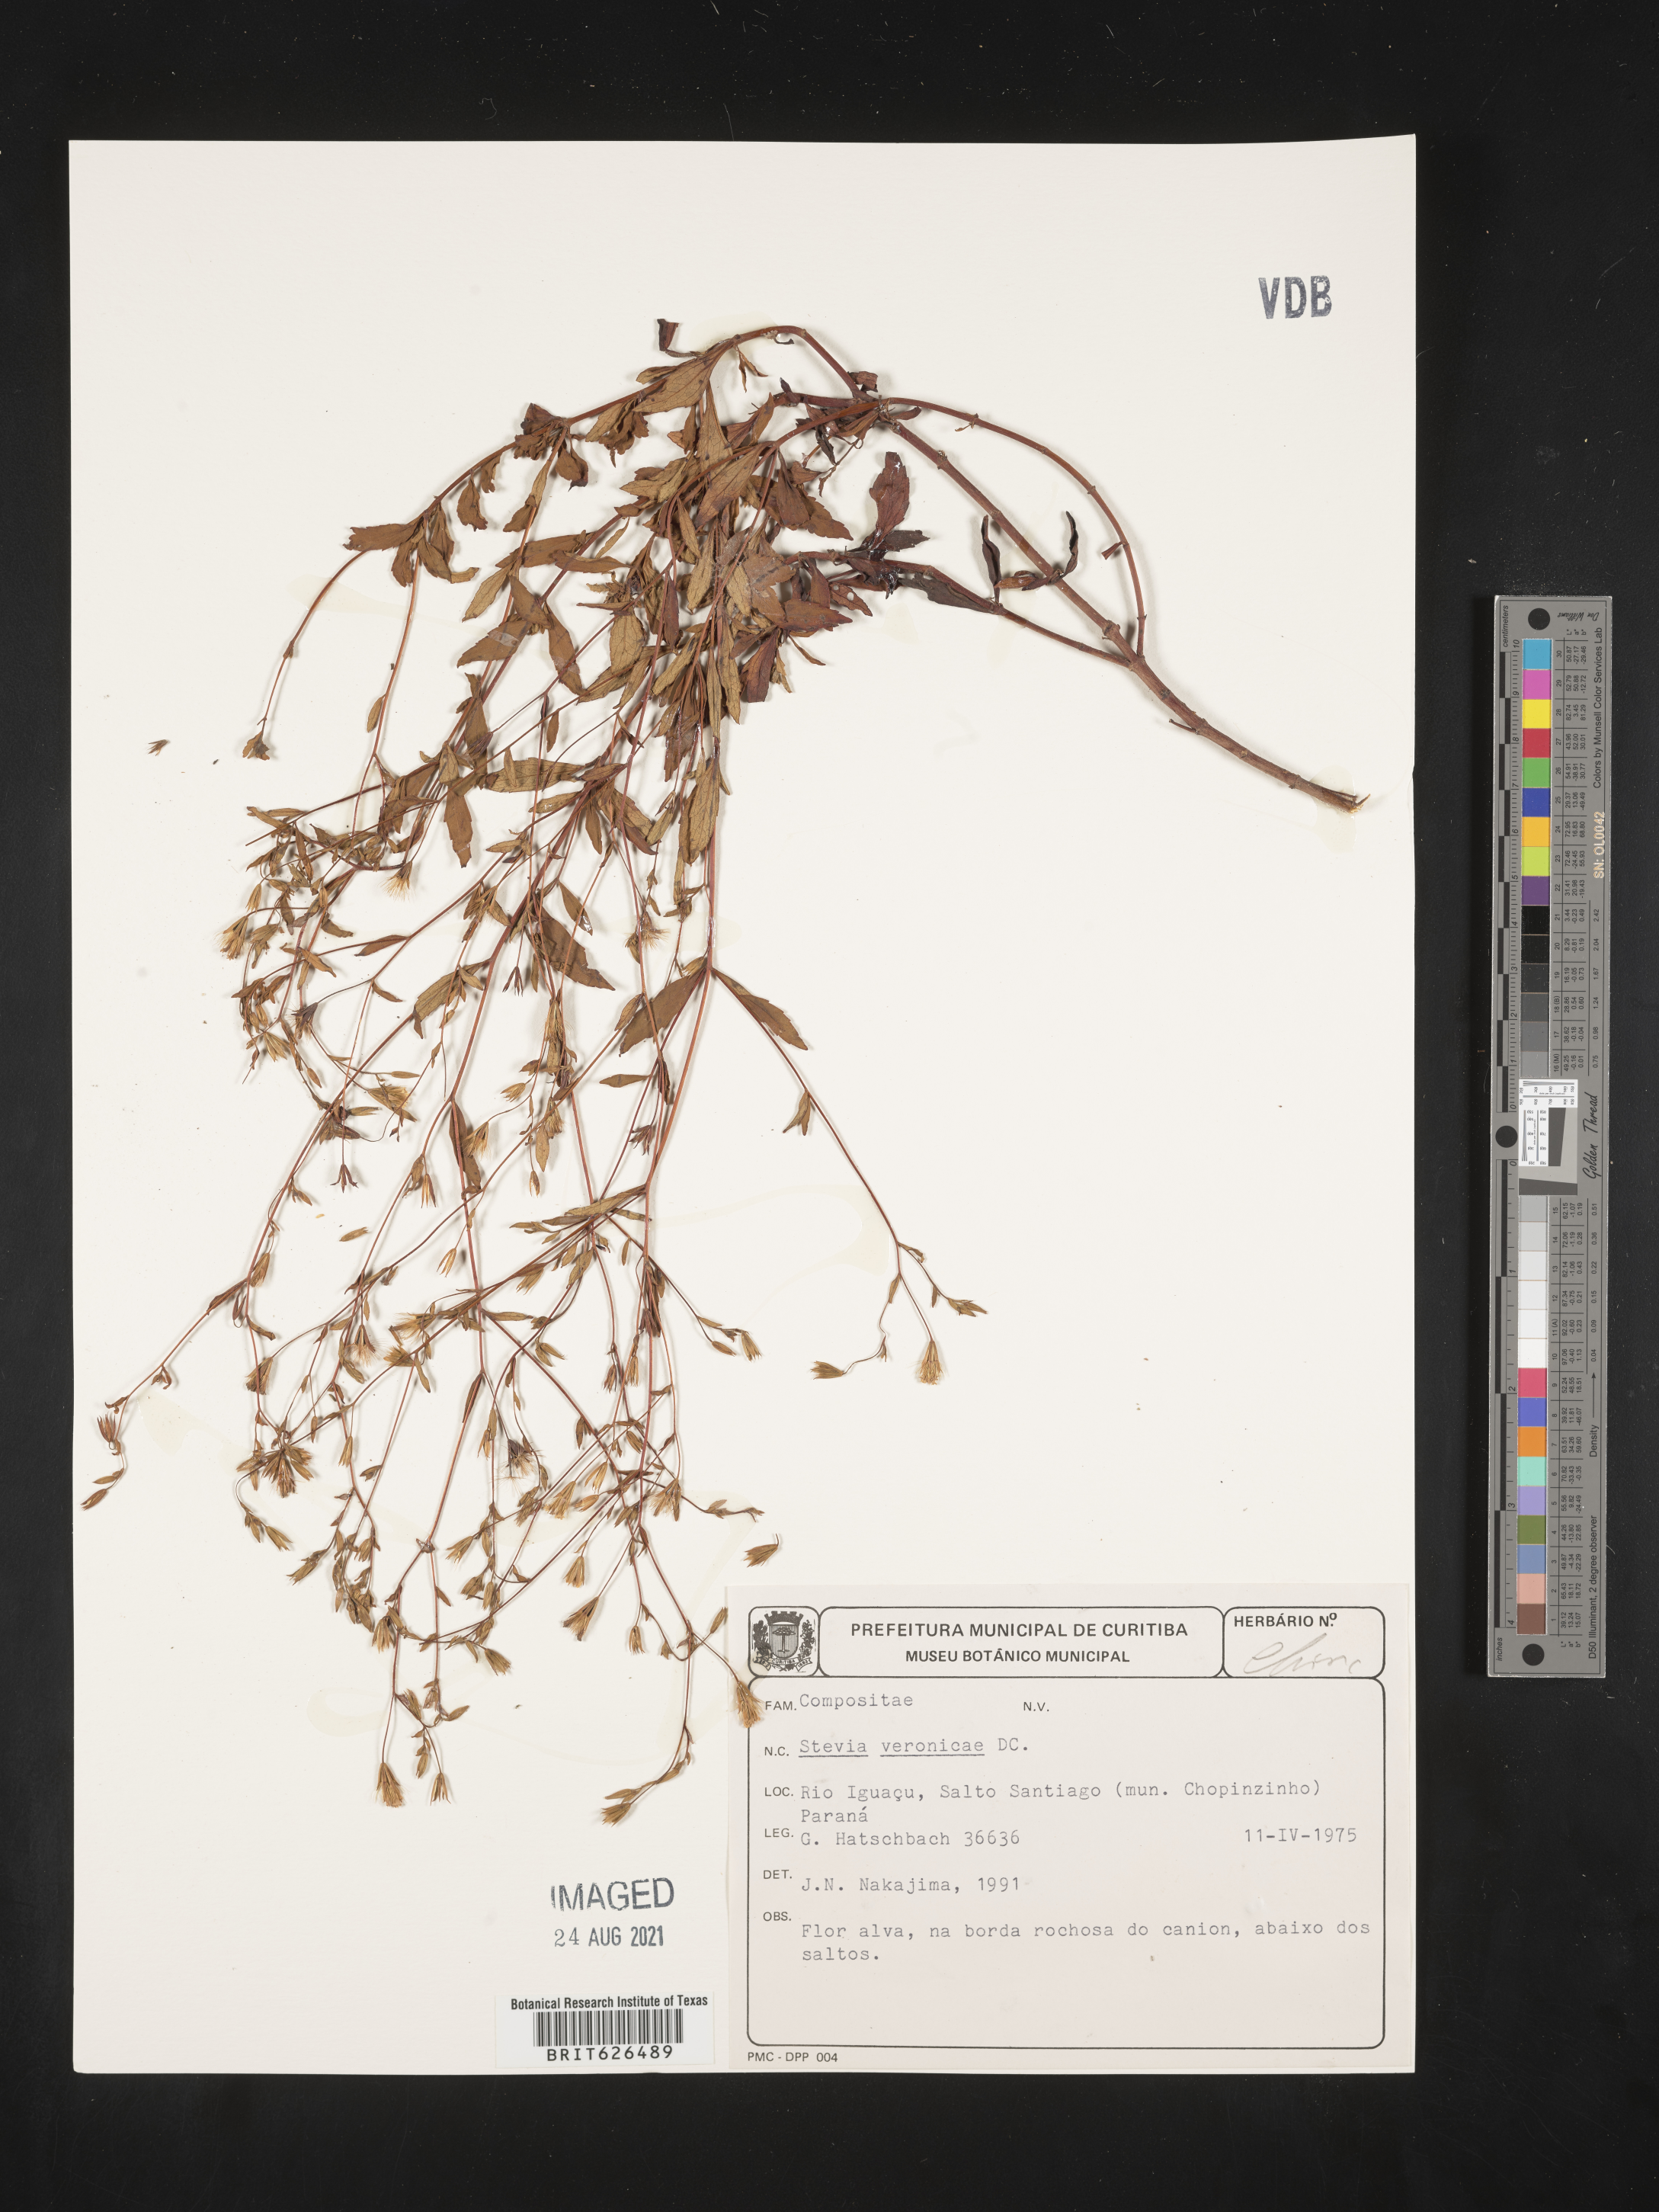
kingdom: Plantae
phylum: Tracheophyta
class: Magnoliopsida
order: Asterales
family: Asteraceae
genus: Stevia
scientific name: Stevia veronicae
